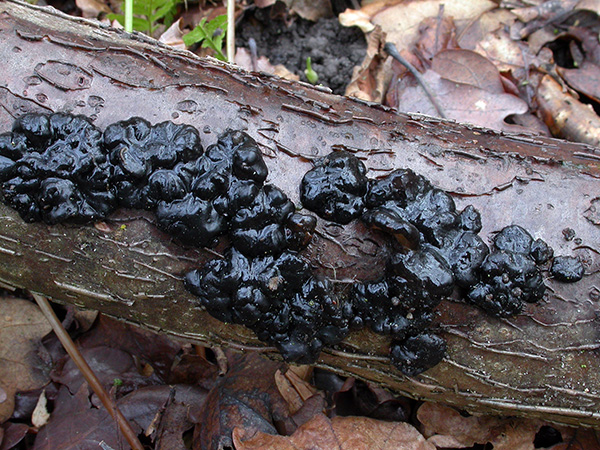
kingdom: Fungi
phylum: Basidiomycota
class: Agaricomycetes
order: Auriculariales
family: Auriculariaceae
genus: Exidia
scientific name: Exidia nigricans
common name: almindelig bævretop
